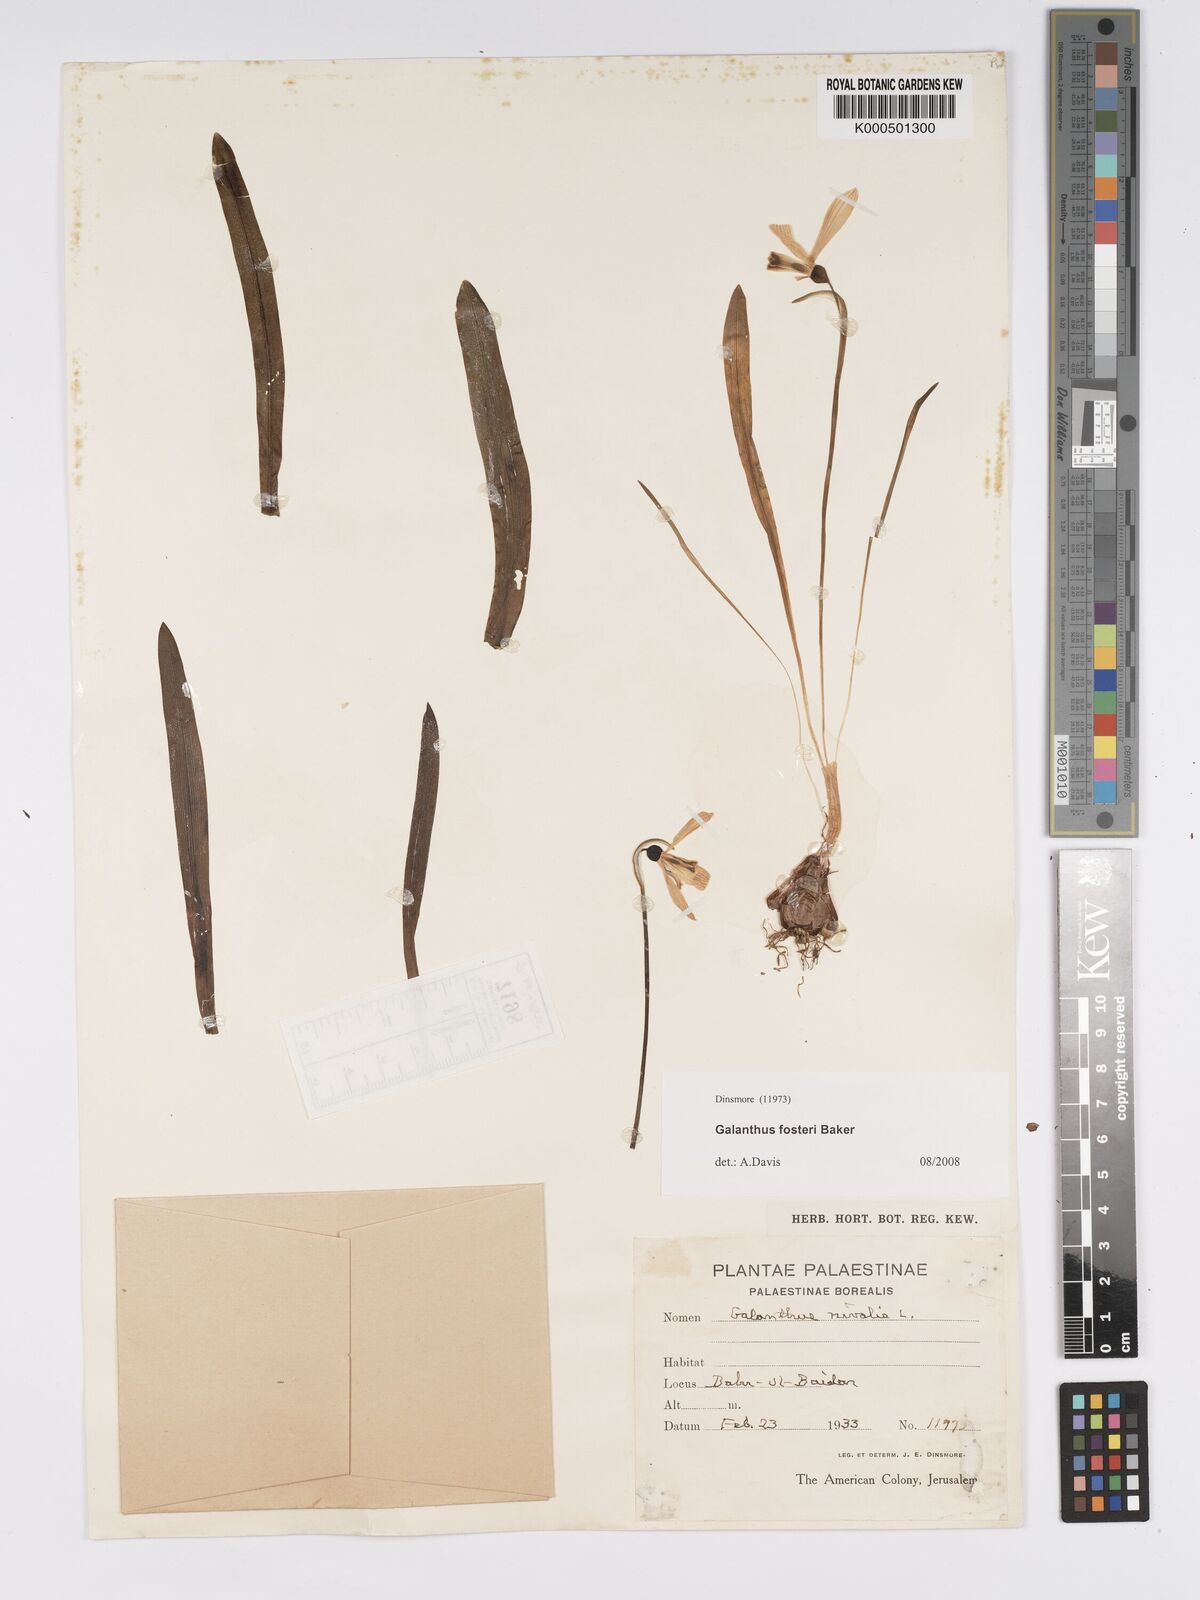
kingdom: Plantae
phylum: Tracheophyta
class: Liliopsida
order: Asparagales
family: Amaryllidaceae
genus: Galanthus
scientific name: Galanthus fosteri
